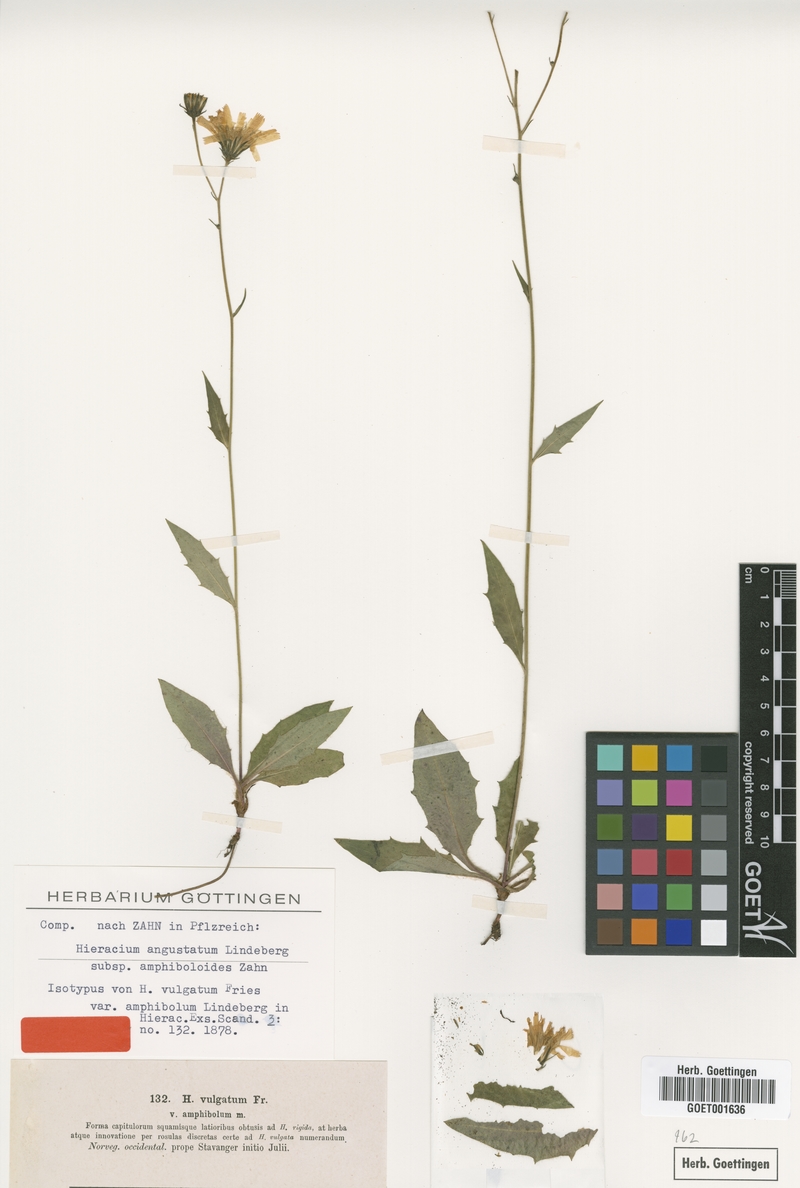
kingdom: Plantae
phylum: Tracheophyta
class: Magnoliopsida
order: Asterales
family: Asteraceae
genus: Hieracium
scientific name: Hieracium imbricatum
